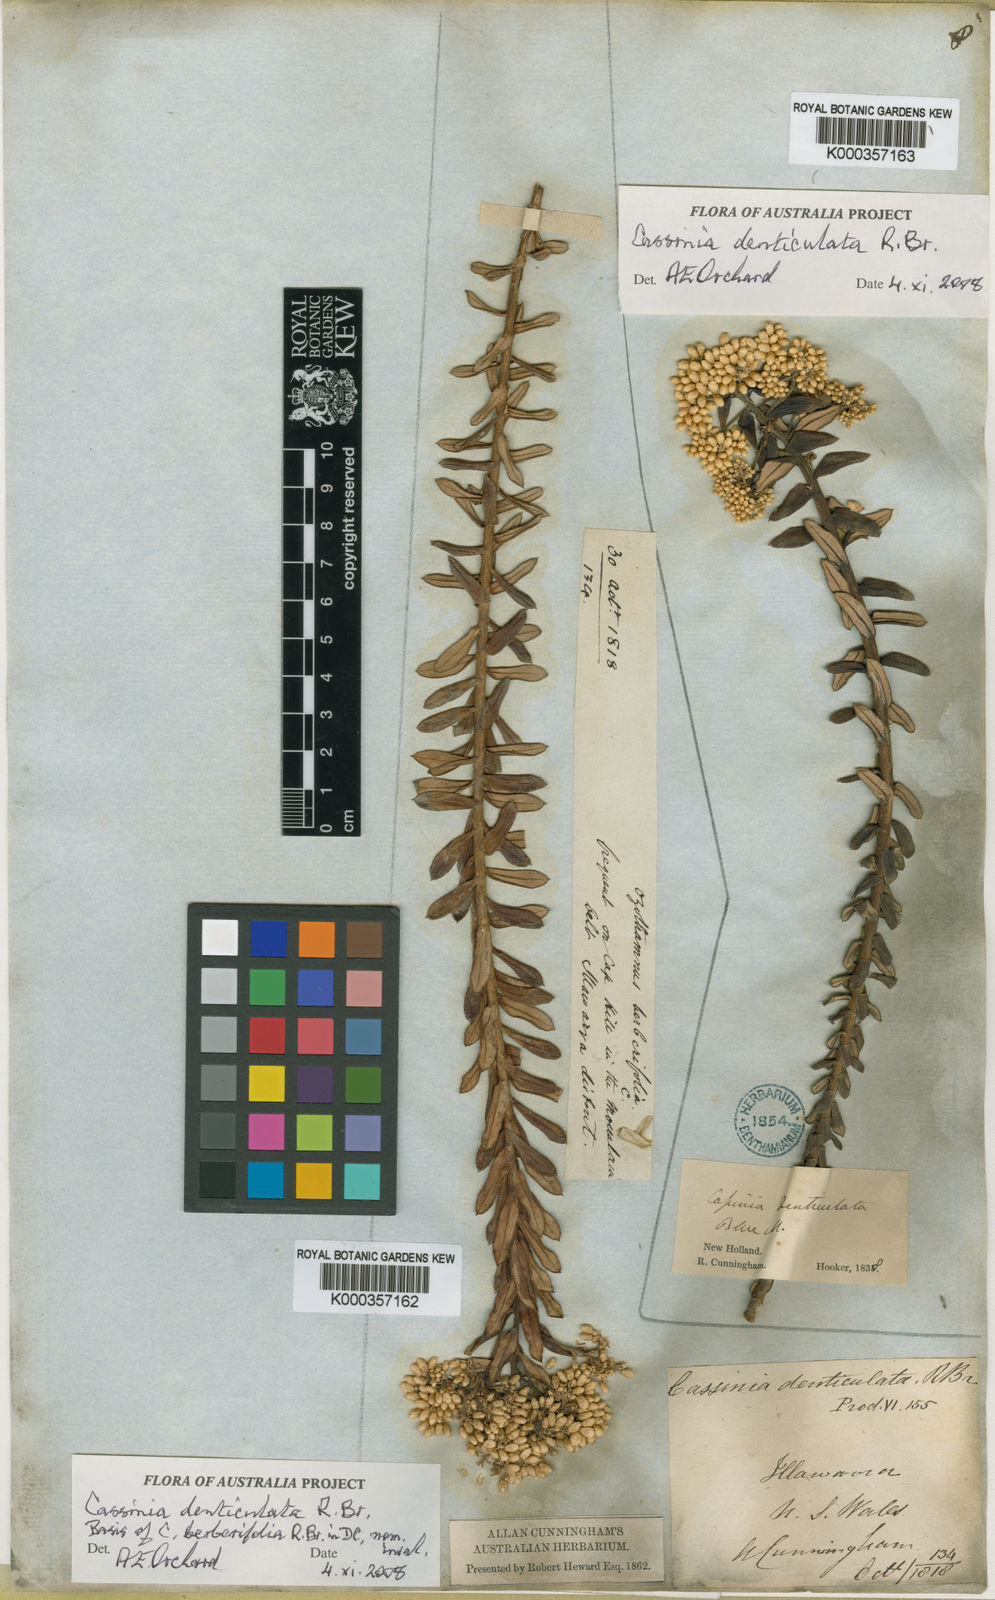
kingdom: Plantae
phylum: Tracheophyta
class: Magnoliopsida
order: Asterales
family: Asteraceae
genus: Cassinia
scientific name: Cassinia denticulata
